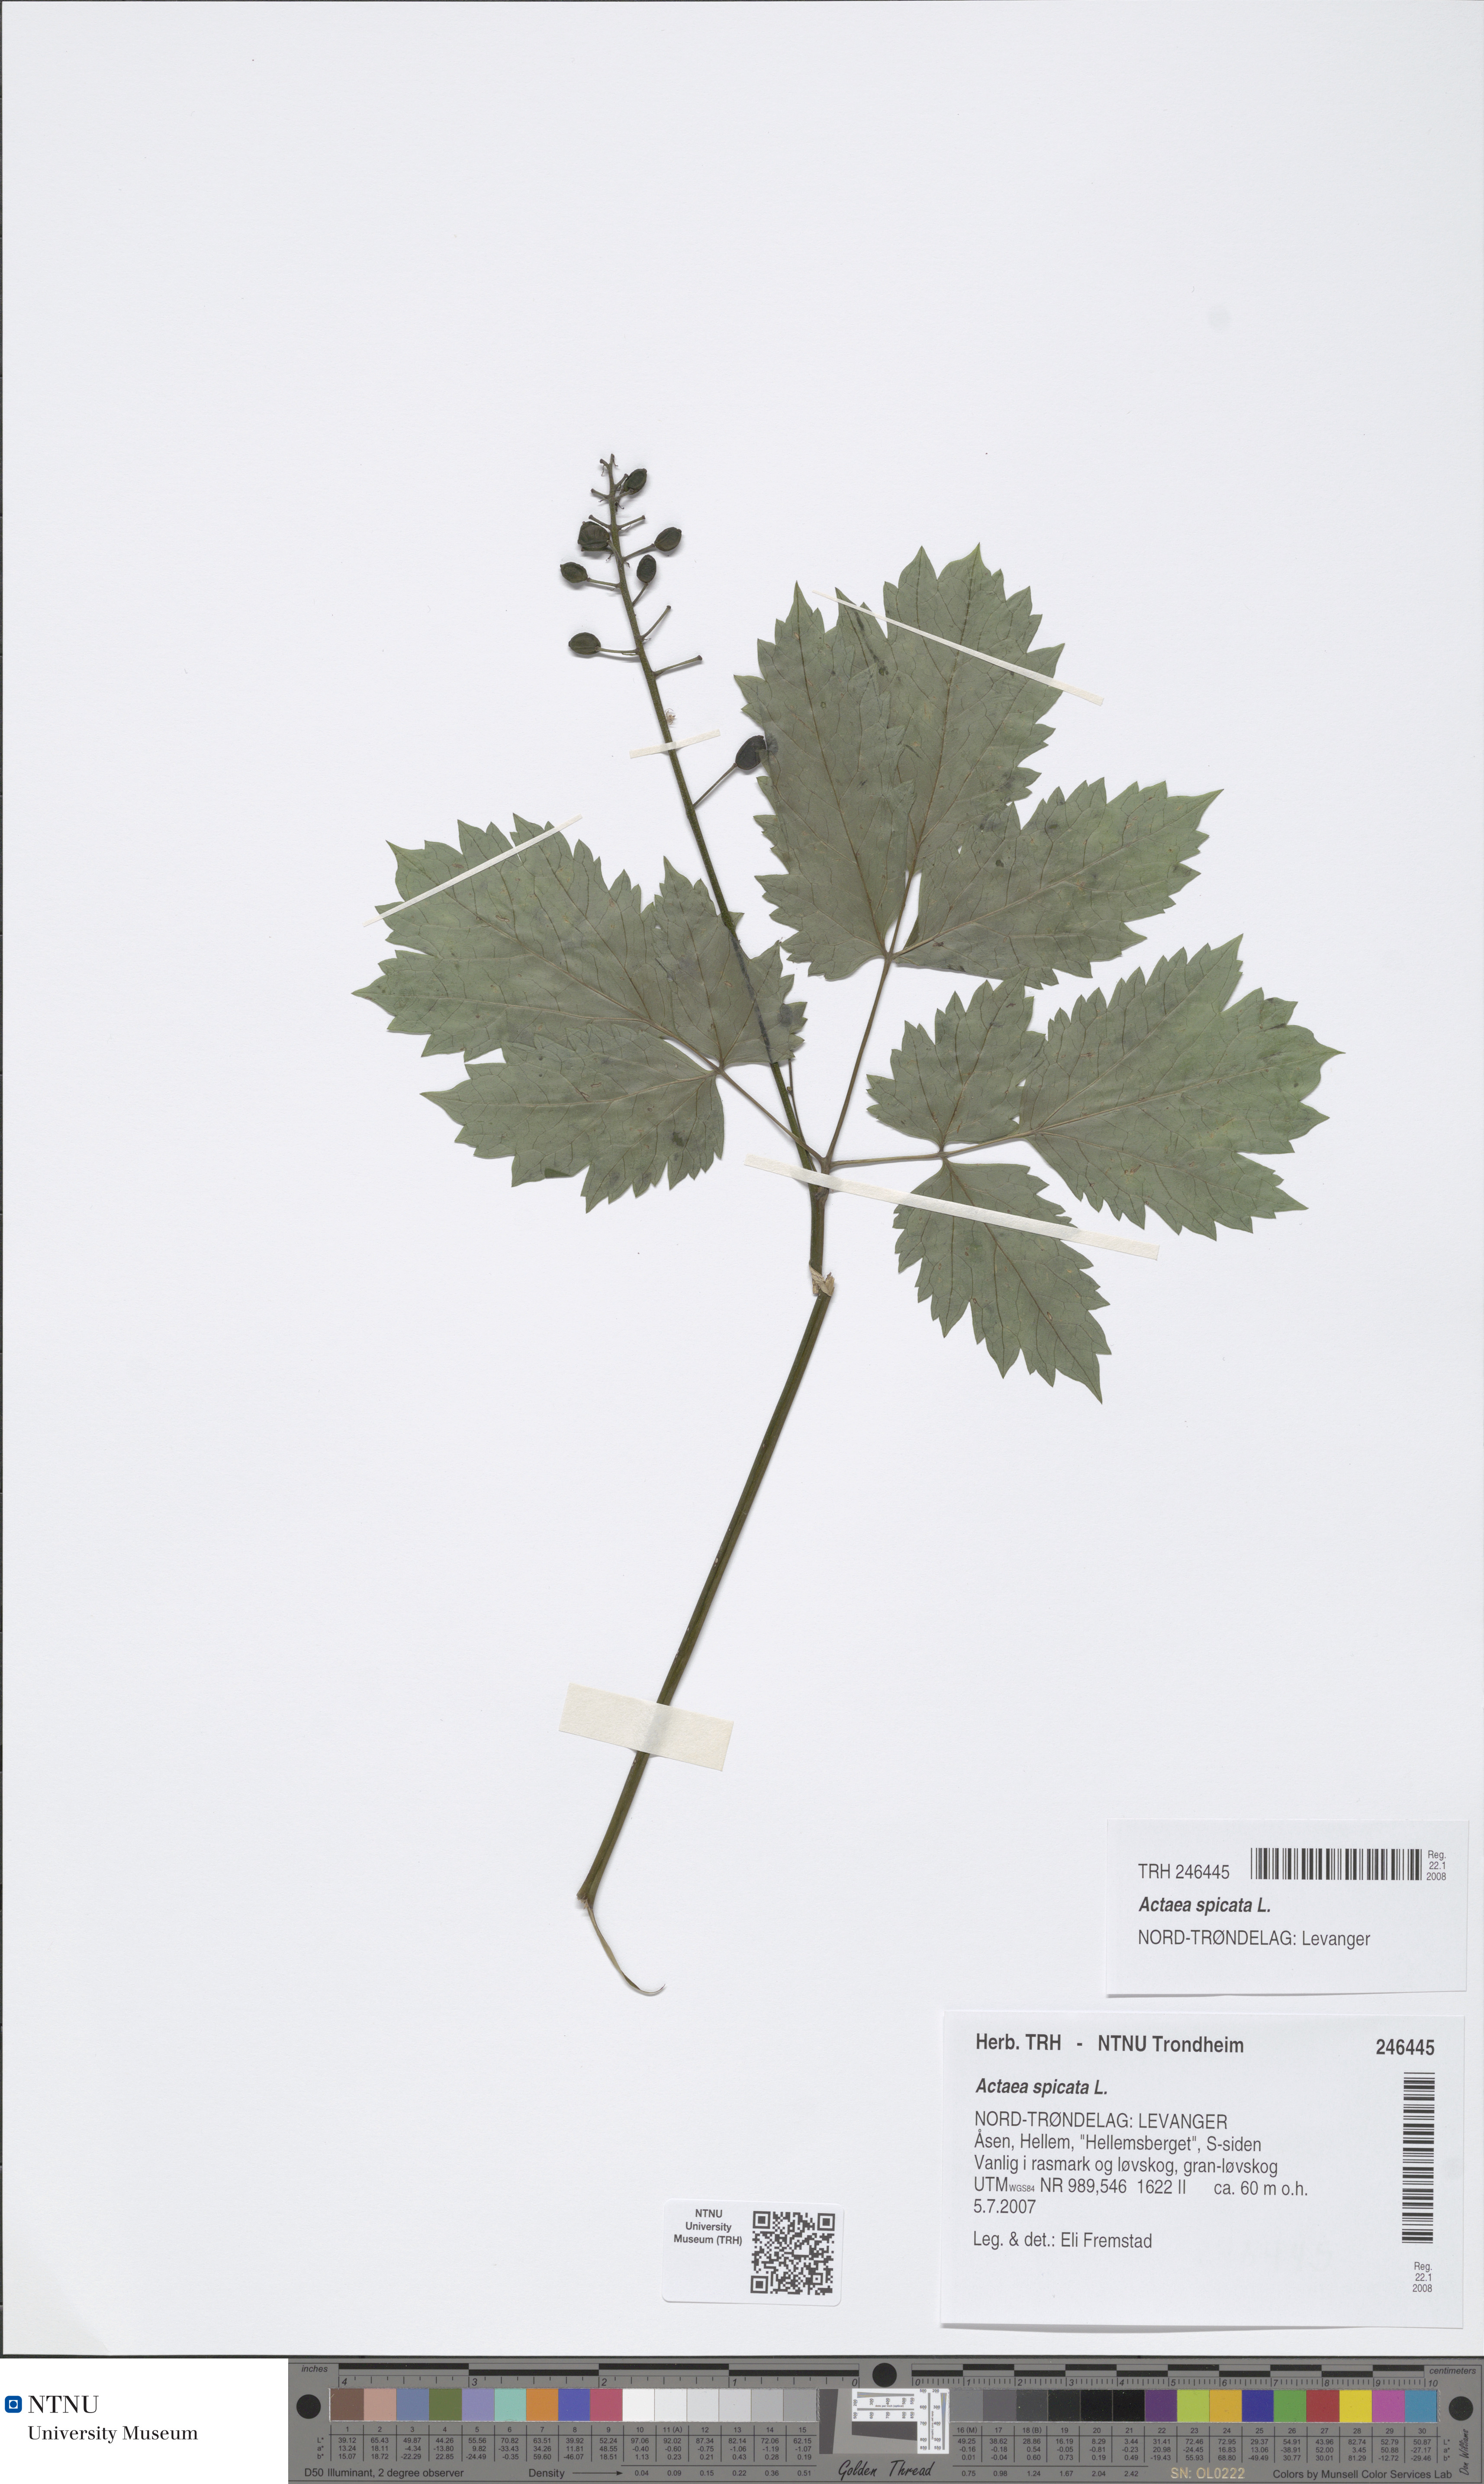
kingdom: Plantae
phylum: Tracheophyta
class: Magnoliopsida
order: Ranunculales
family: Ranunculaceae
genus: Actaea
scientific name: Actaea spicata
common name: Baneberry
